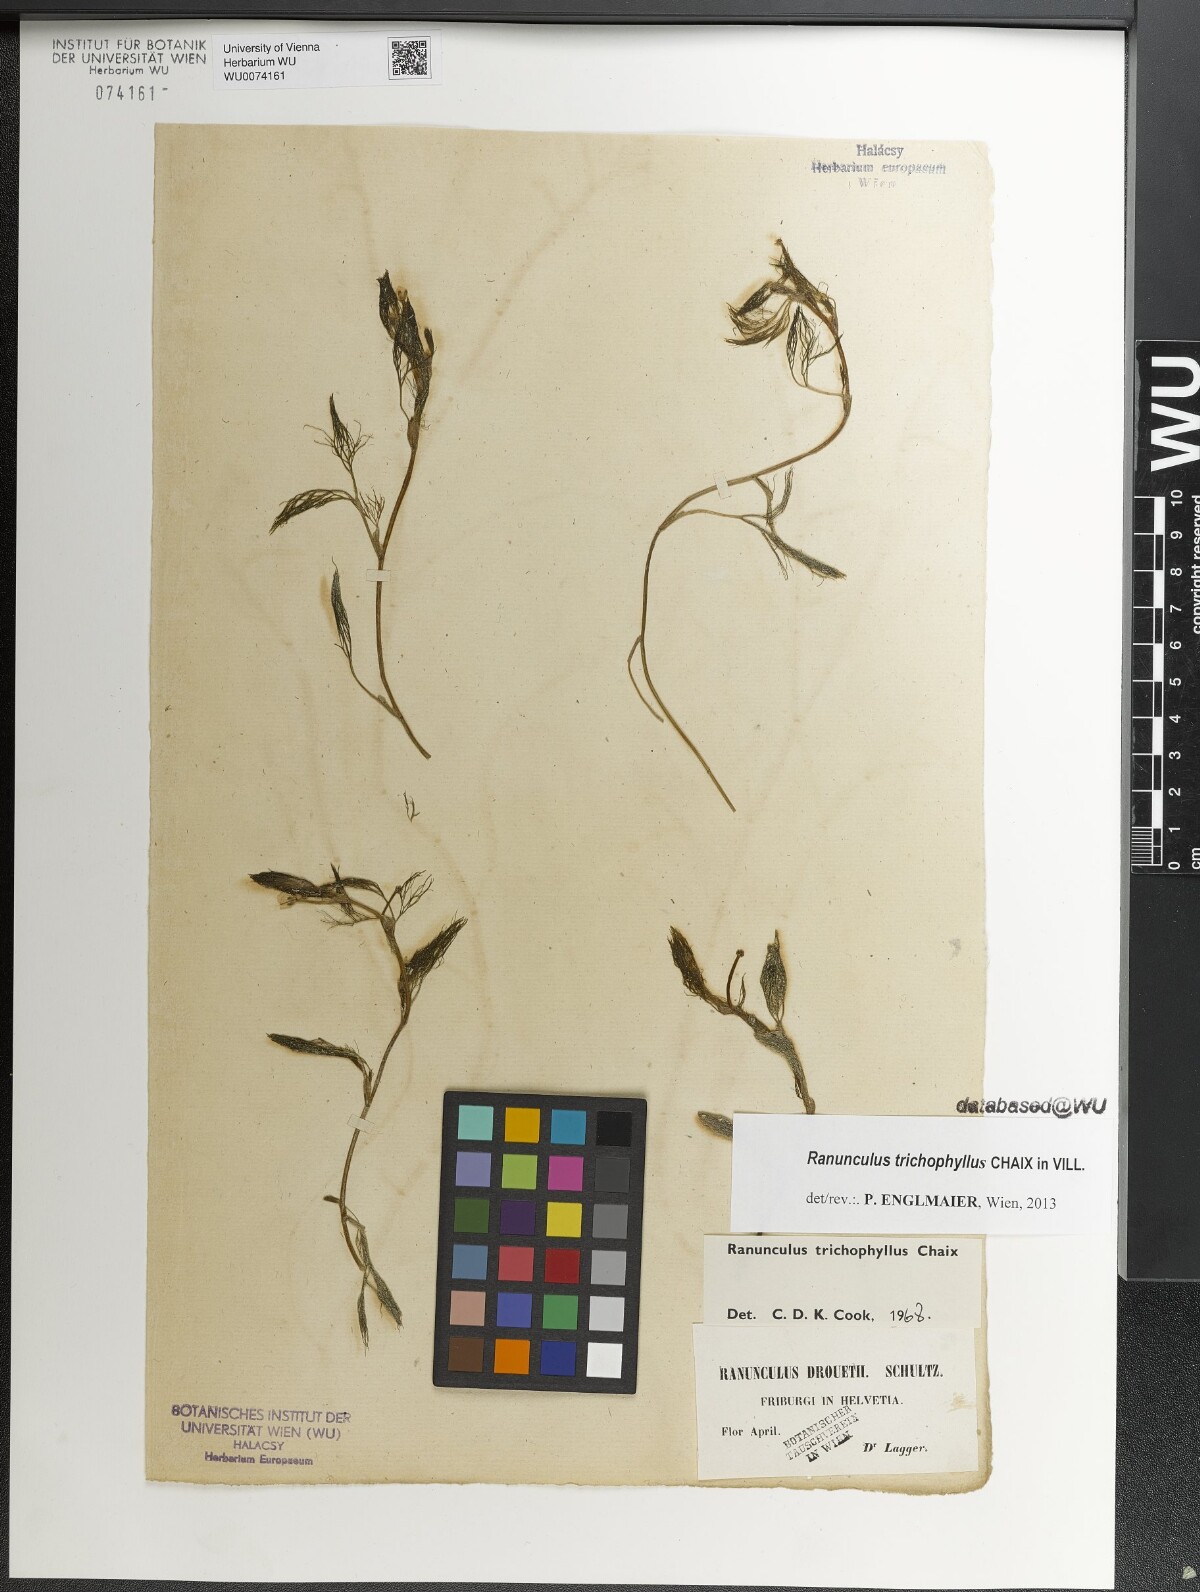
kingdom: Plantae
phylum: Tracheophyta
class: Magnoliopsida
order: Ranunculales
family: Ranunculaceae
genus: Ranunculus
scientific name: Ranunculus trichophyllus
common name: Thread-leaved water-crowfoot
